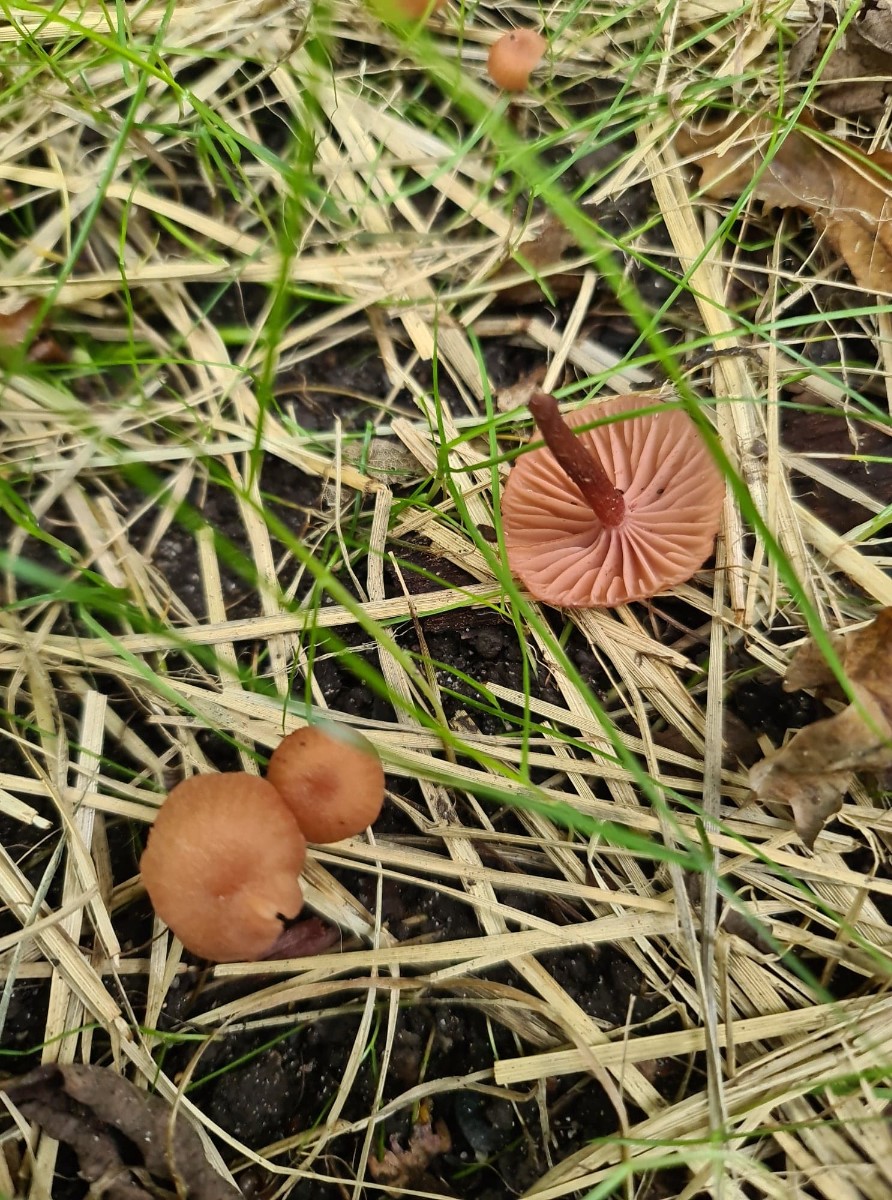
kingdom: Fungi
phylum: Basidiomycota
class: Agaricomycetes
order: Agaricales
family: Hydnangiaceae
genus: Laccaria
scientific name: Laccaria laccata
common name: rød ametysthat
